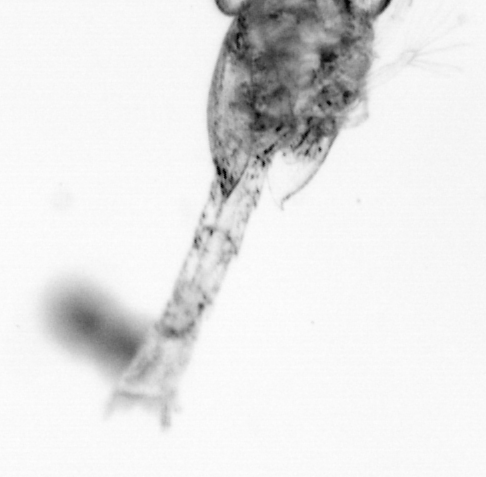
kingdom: Animalia
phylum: Arthropoda
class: Copepoda
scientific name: Copepoda
